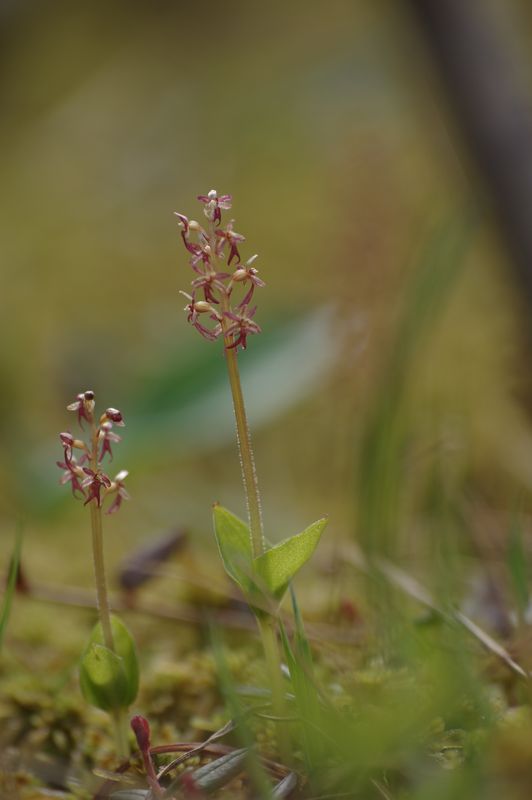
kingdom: Plantae
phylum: Tracheophyta
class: Liliopsida
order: Asparagales
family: Orchidaceae
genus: Neottia
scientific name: Neottia cordata
